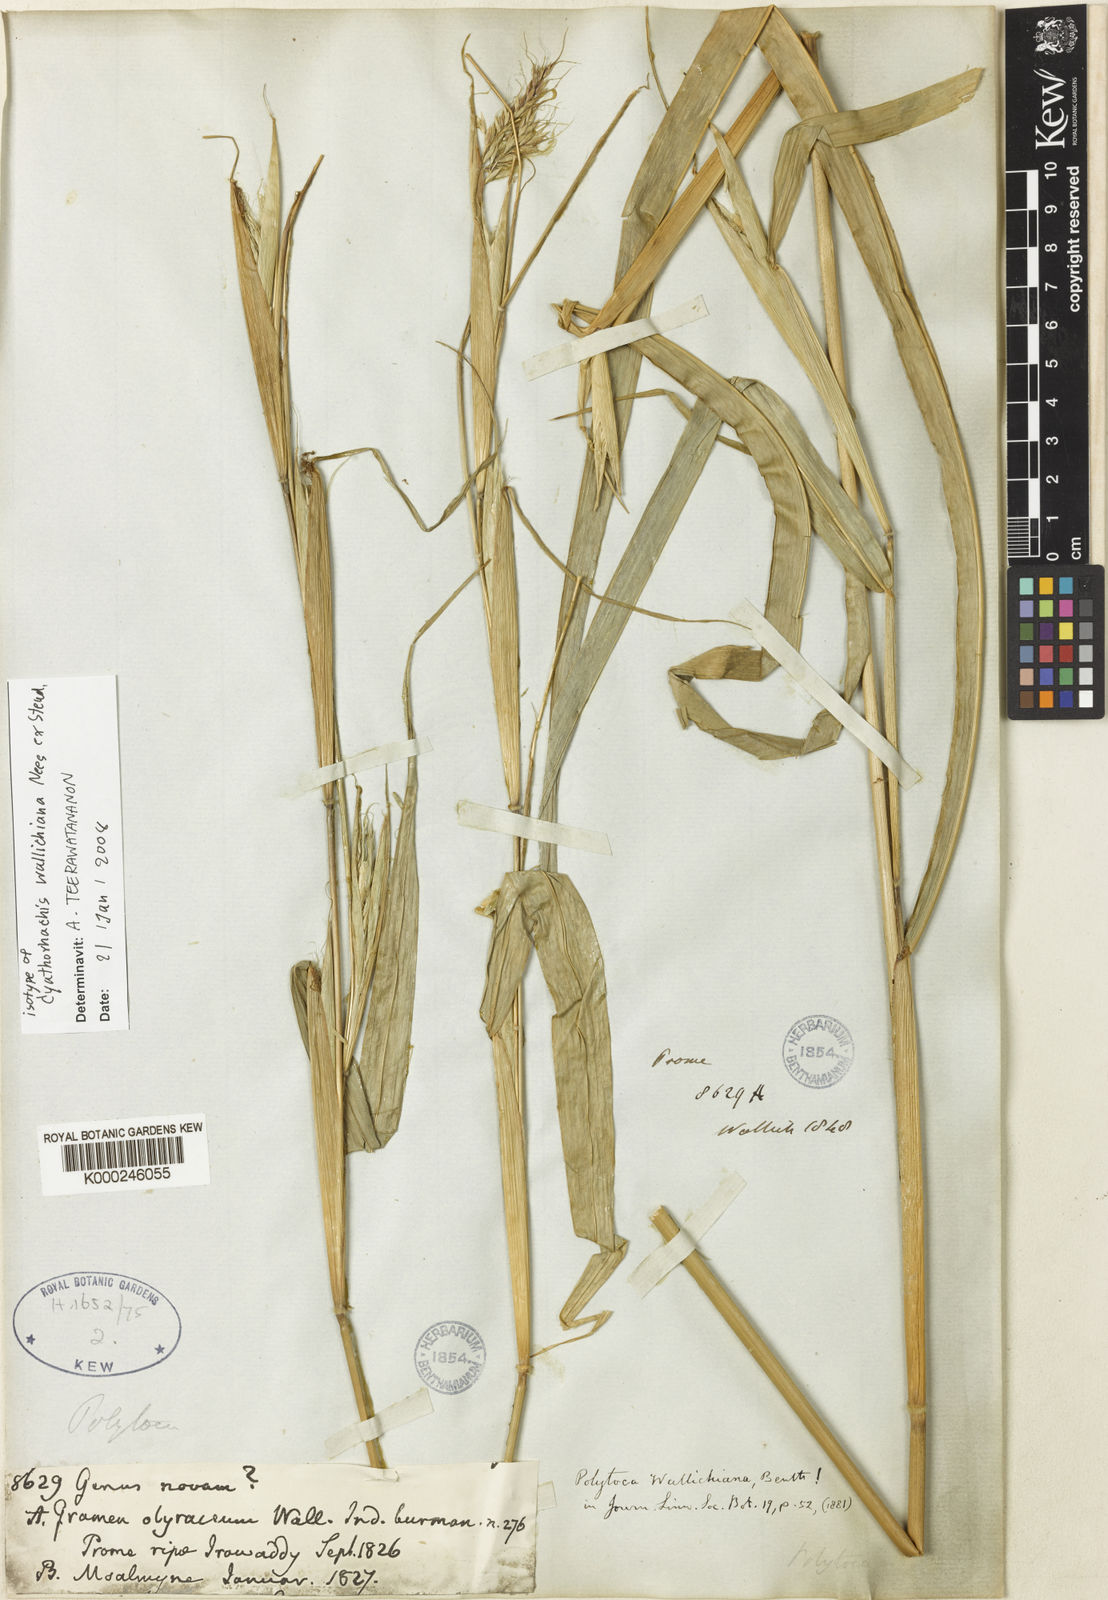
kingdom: Plantae
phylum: Tracheophyta
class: Liliopsida
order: Poales
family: Poaceae
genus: Polytoca
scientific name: Polytoca wallichiana
